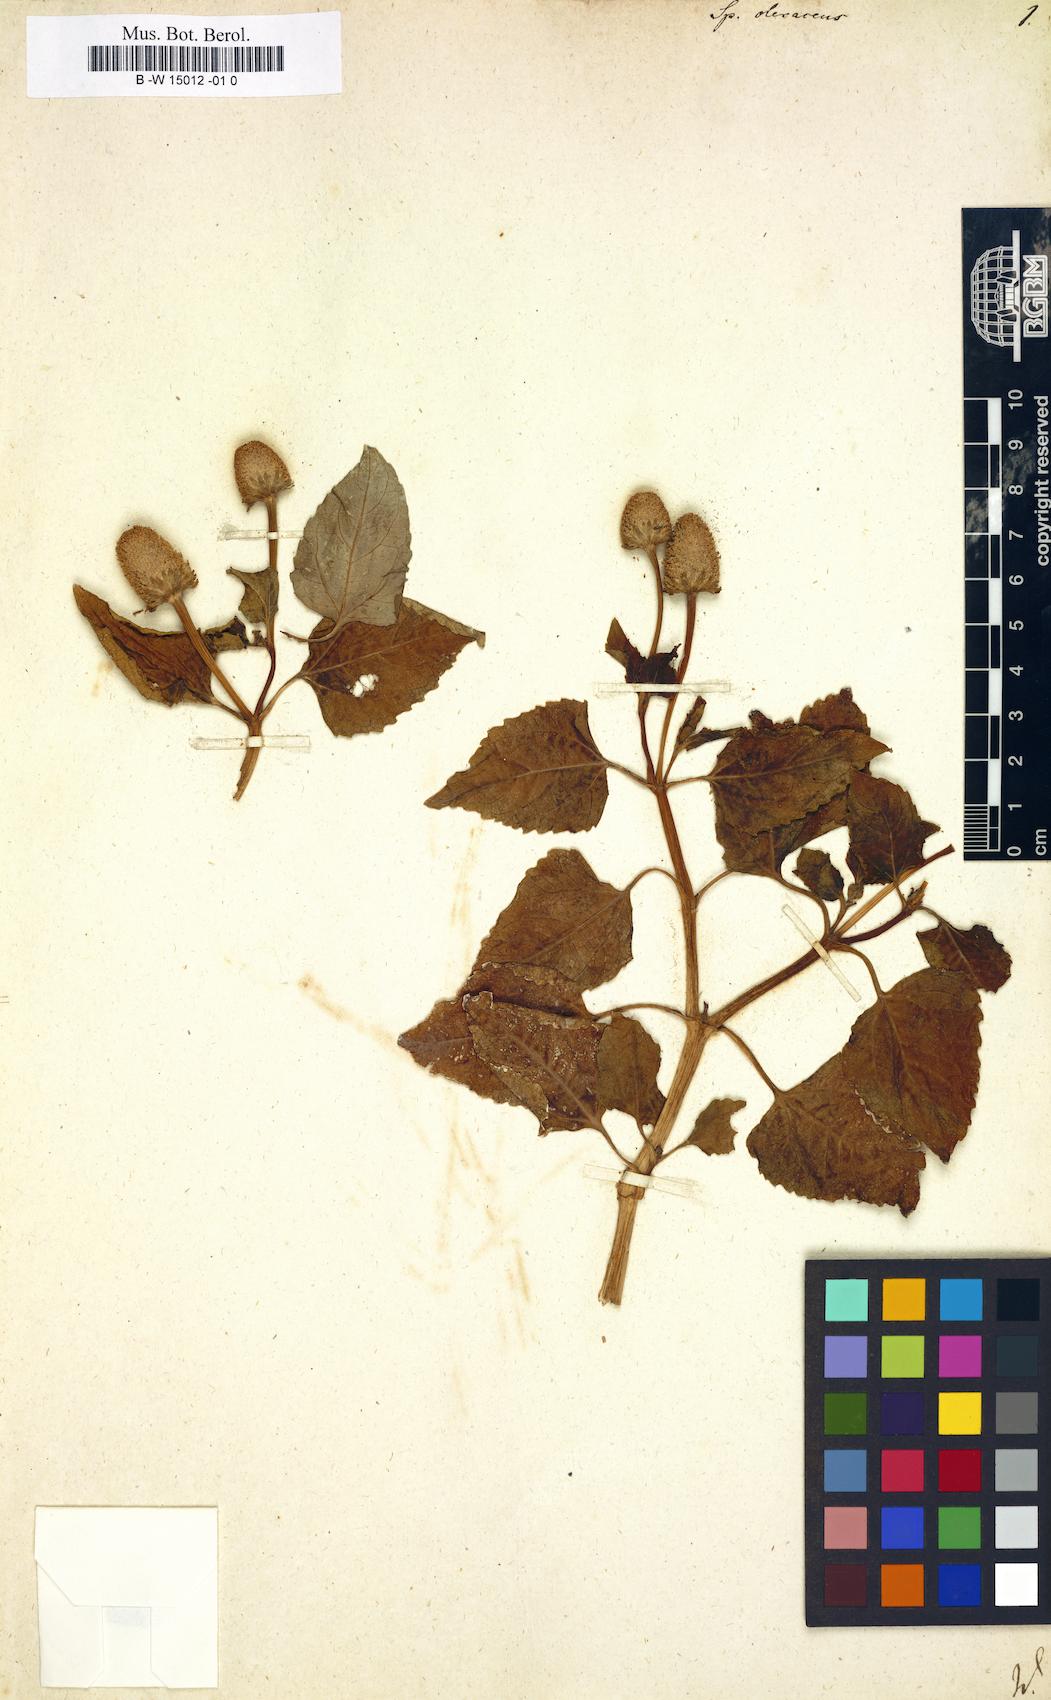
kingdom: Plantae
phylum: Tracheophyta
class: Magnoliopsida
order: Asterales
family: Asteraceae
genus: Acmella
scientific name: Acmella oleracea
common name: Brazilian cress
